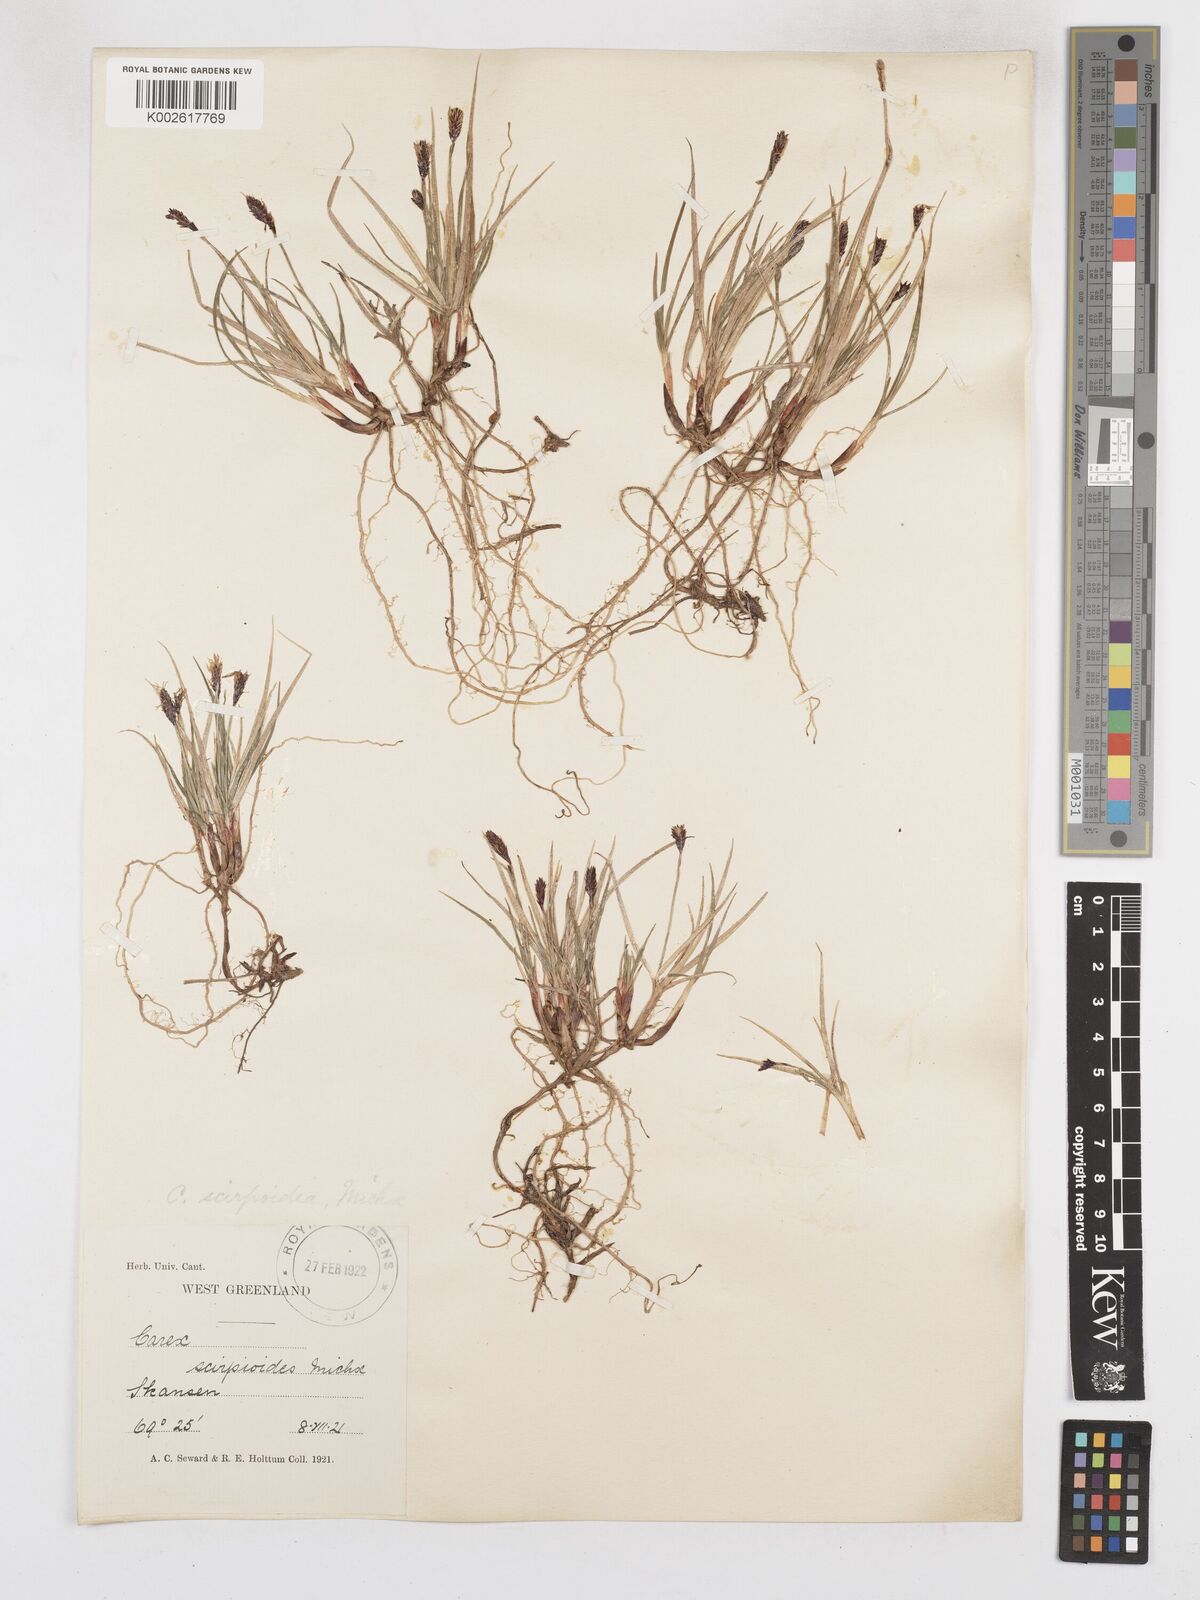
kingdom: Plantae
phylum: Tracheophyta
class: Liliopsida
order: Poales
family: Cyperaceae
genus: Carex
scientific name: Carex scirpoidea
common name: Canada single-spike sedge
